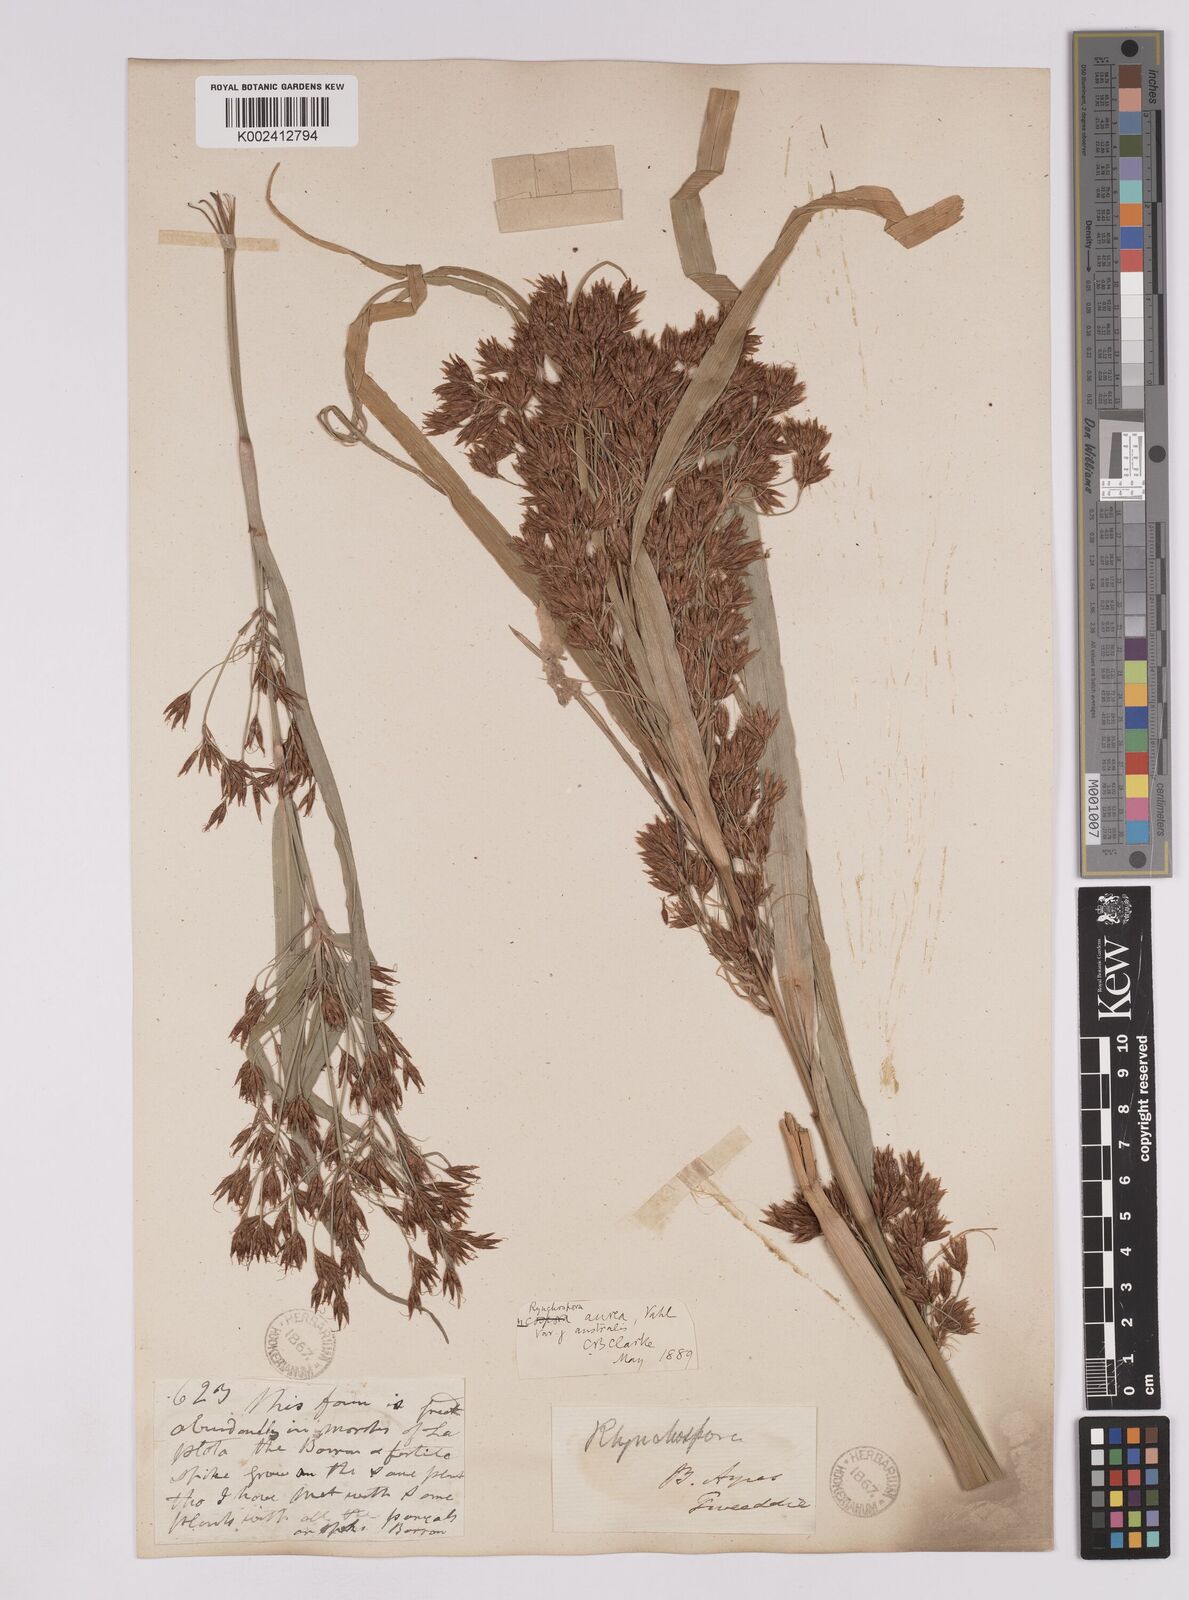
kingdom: Plantae
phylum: Tracheophyta
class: Liliopsida
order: Poales
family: Cyperaceae
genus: Rhynchospora
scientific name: Rhynchospora corymbosa
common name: Golden beak sedge
